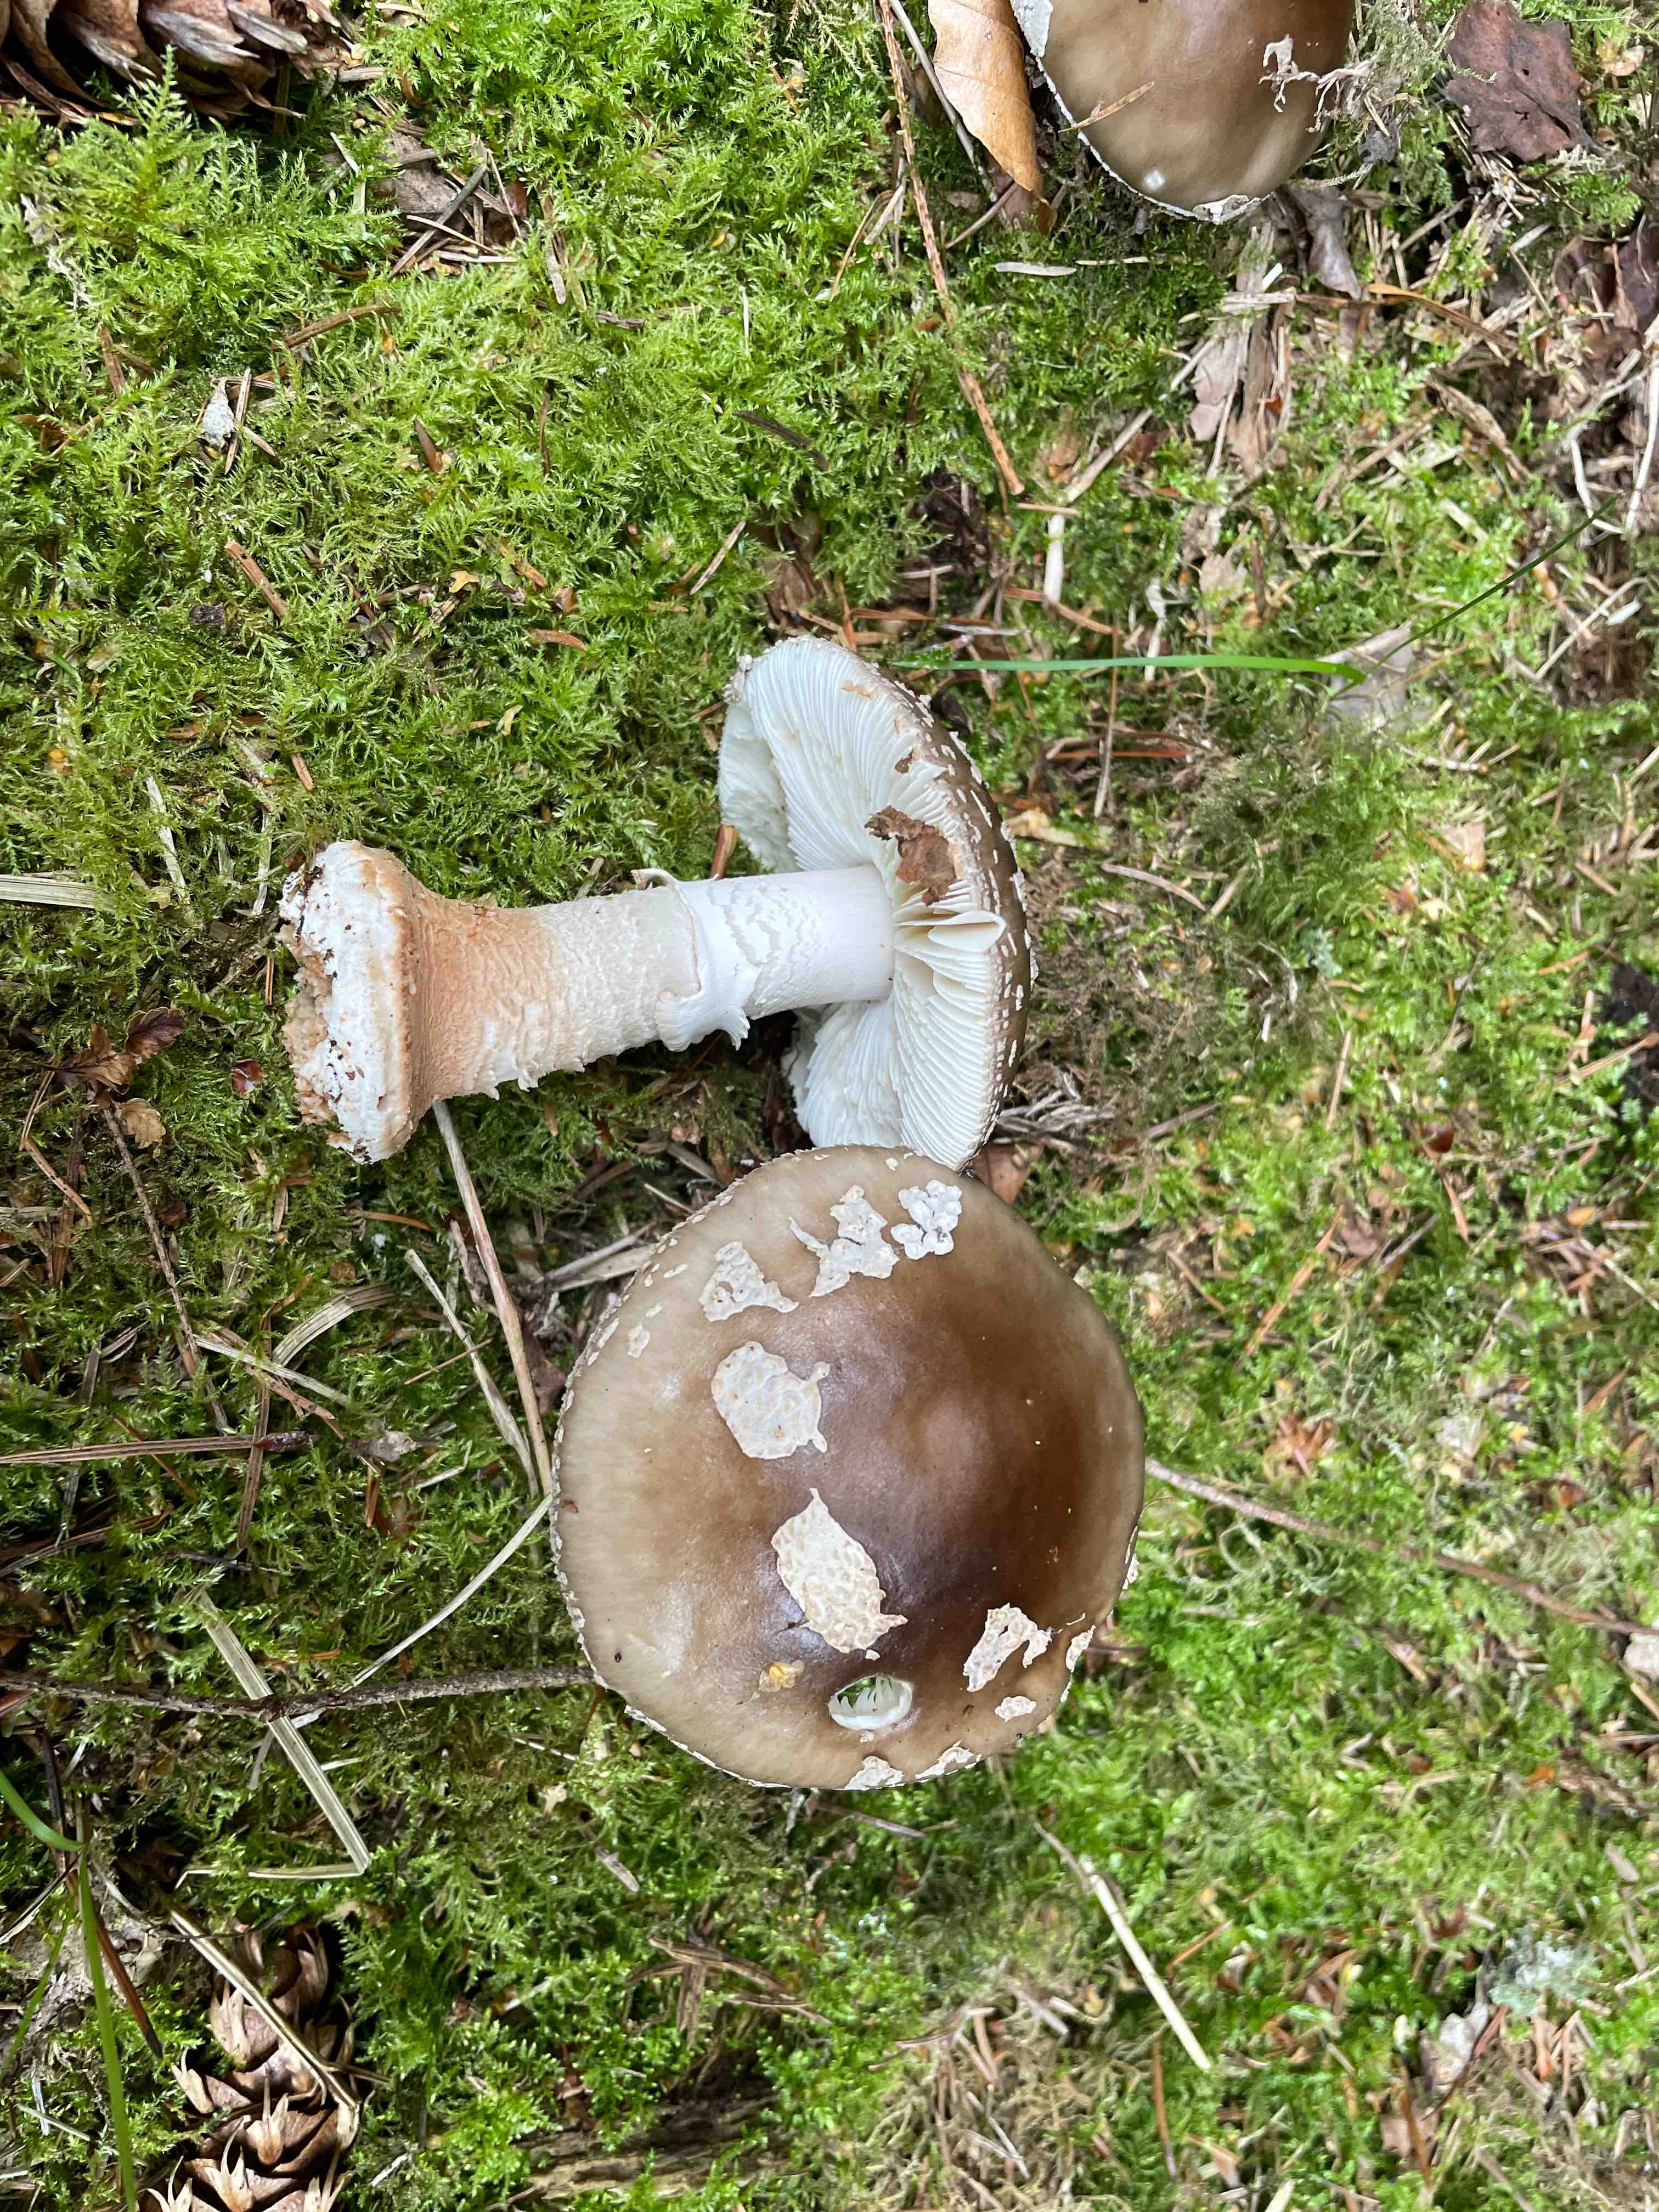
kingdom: Fungi
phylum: Basidiomycota
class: Agaricomycetes
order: Agaricales
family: Amanitaceae
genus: Amanita
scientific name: Amanita
